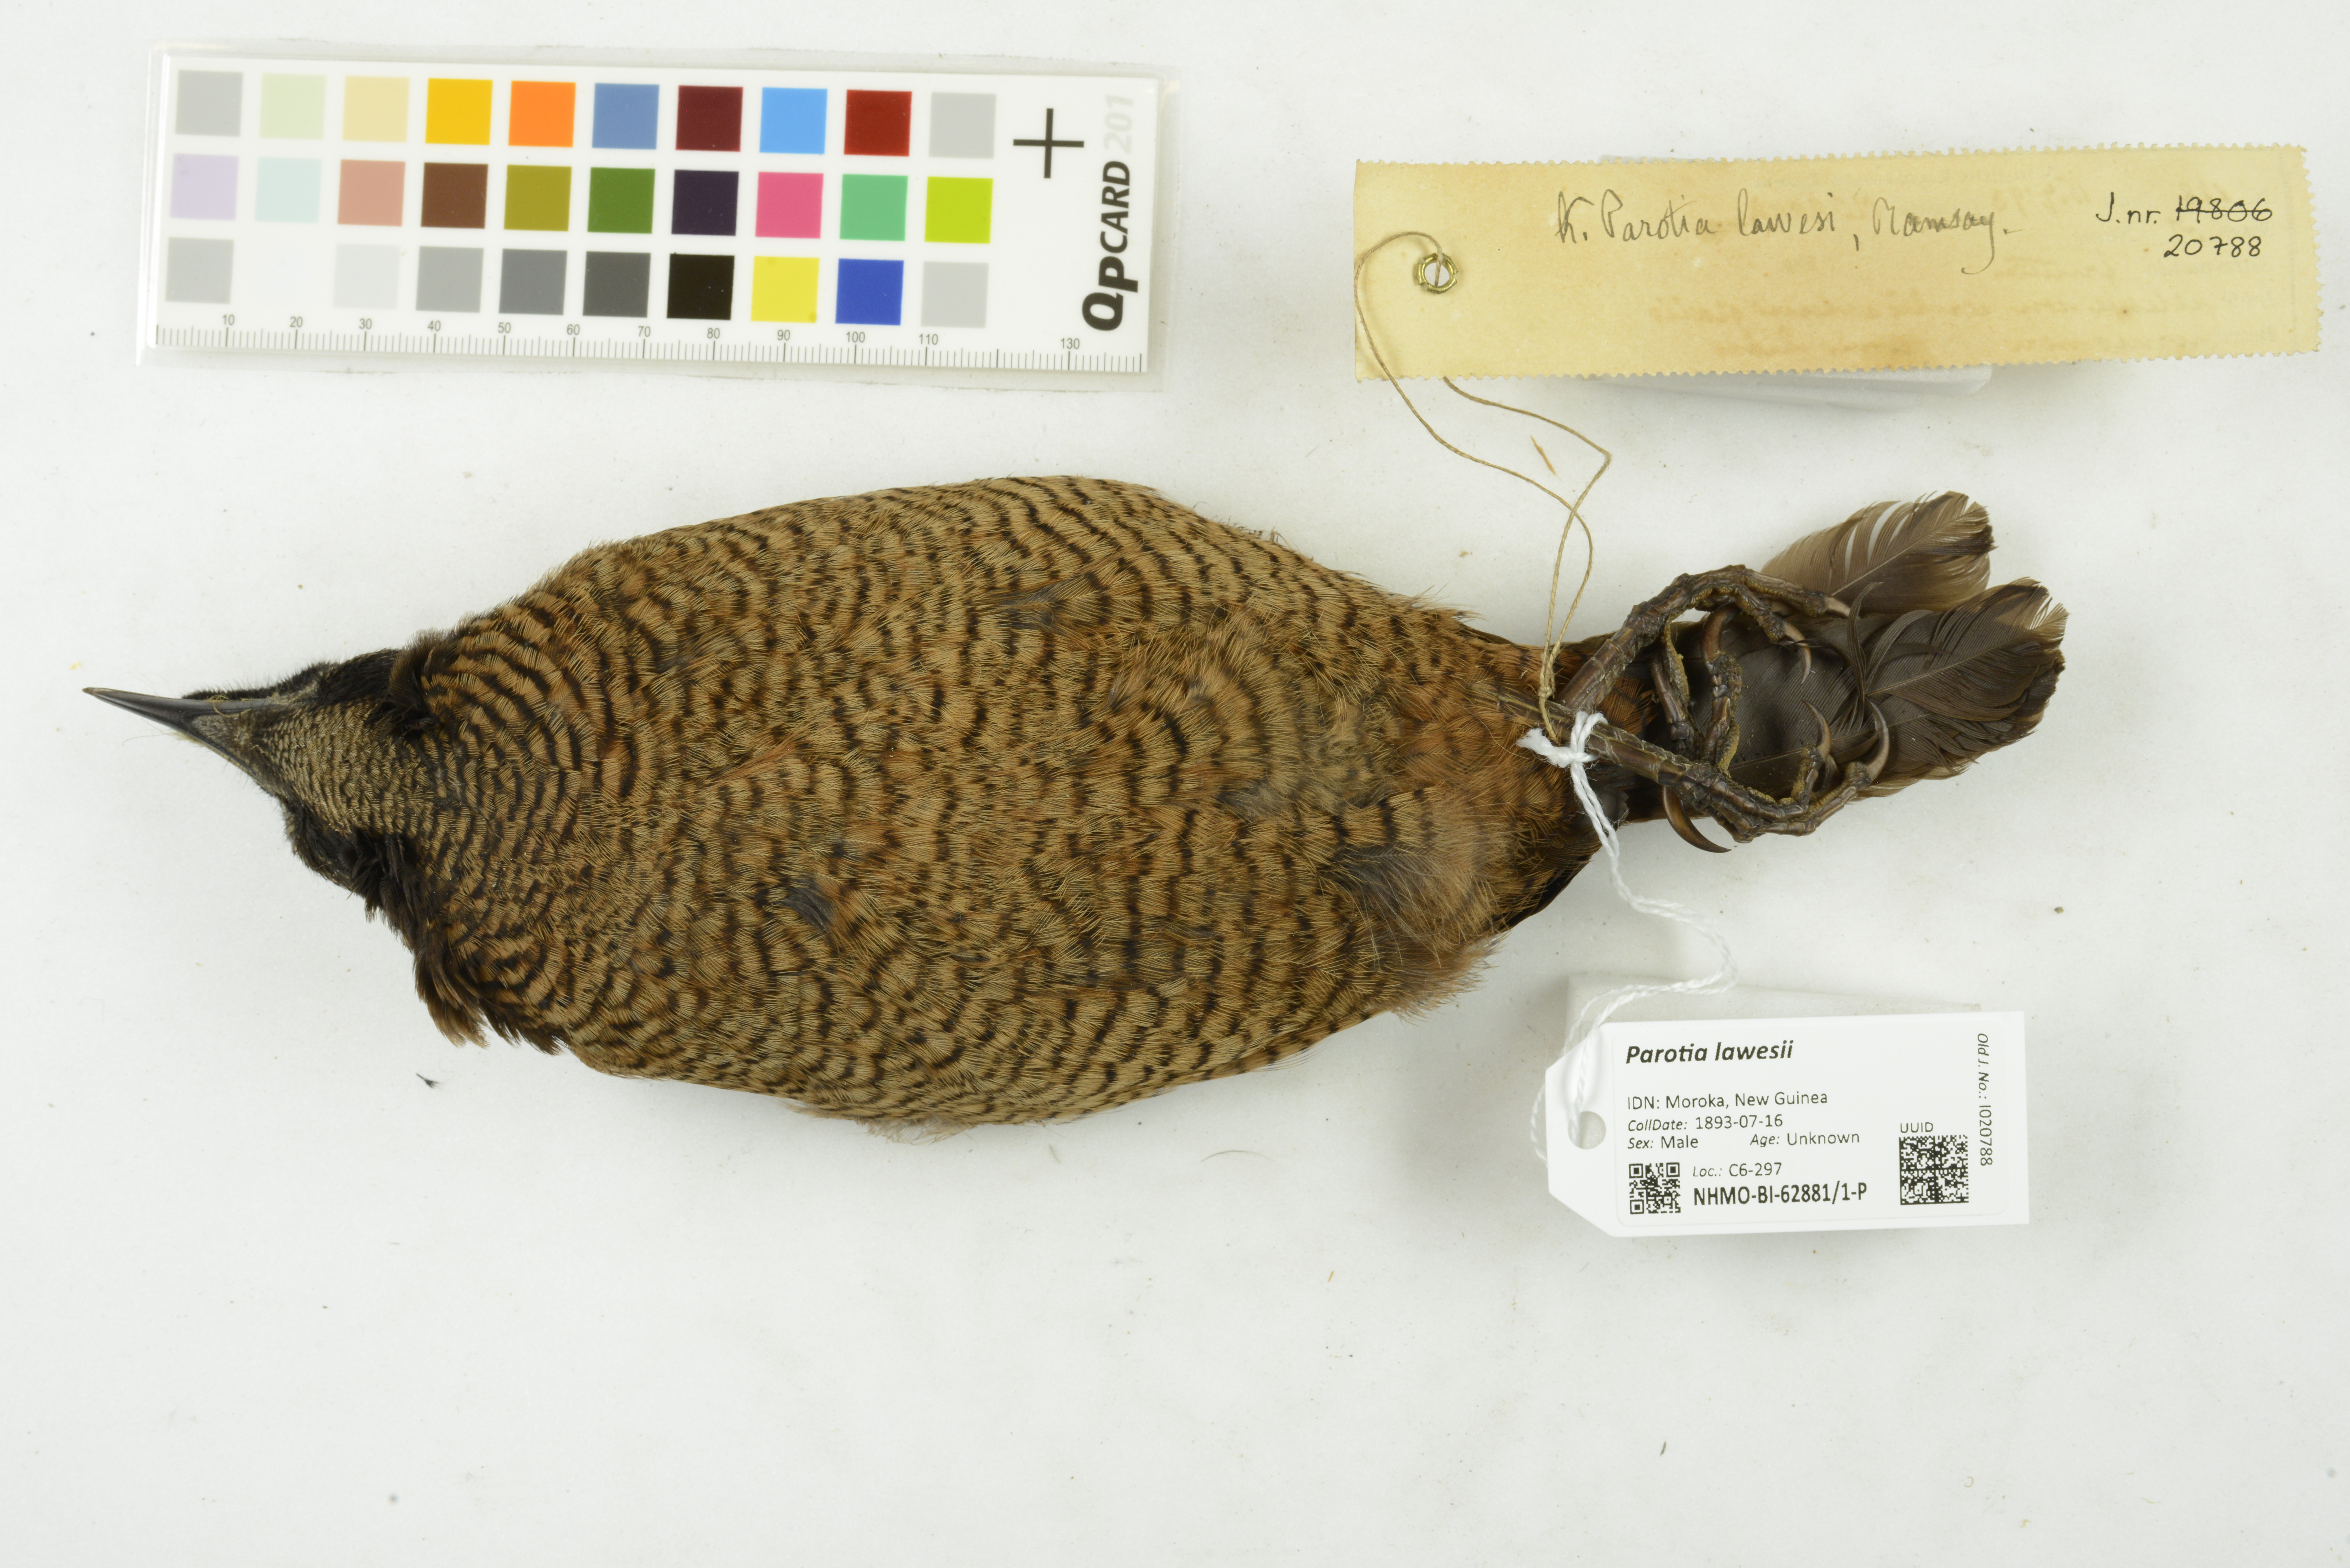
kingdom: Animalia
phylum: Chordata
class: Aves
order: Passeriformes
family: Paradisaeidae
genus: Parotia
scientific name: Parotia lawesii
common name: Lawes's parotia
